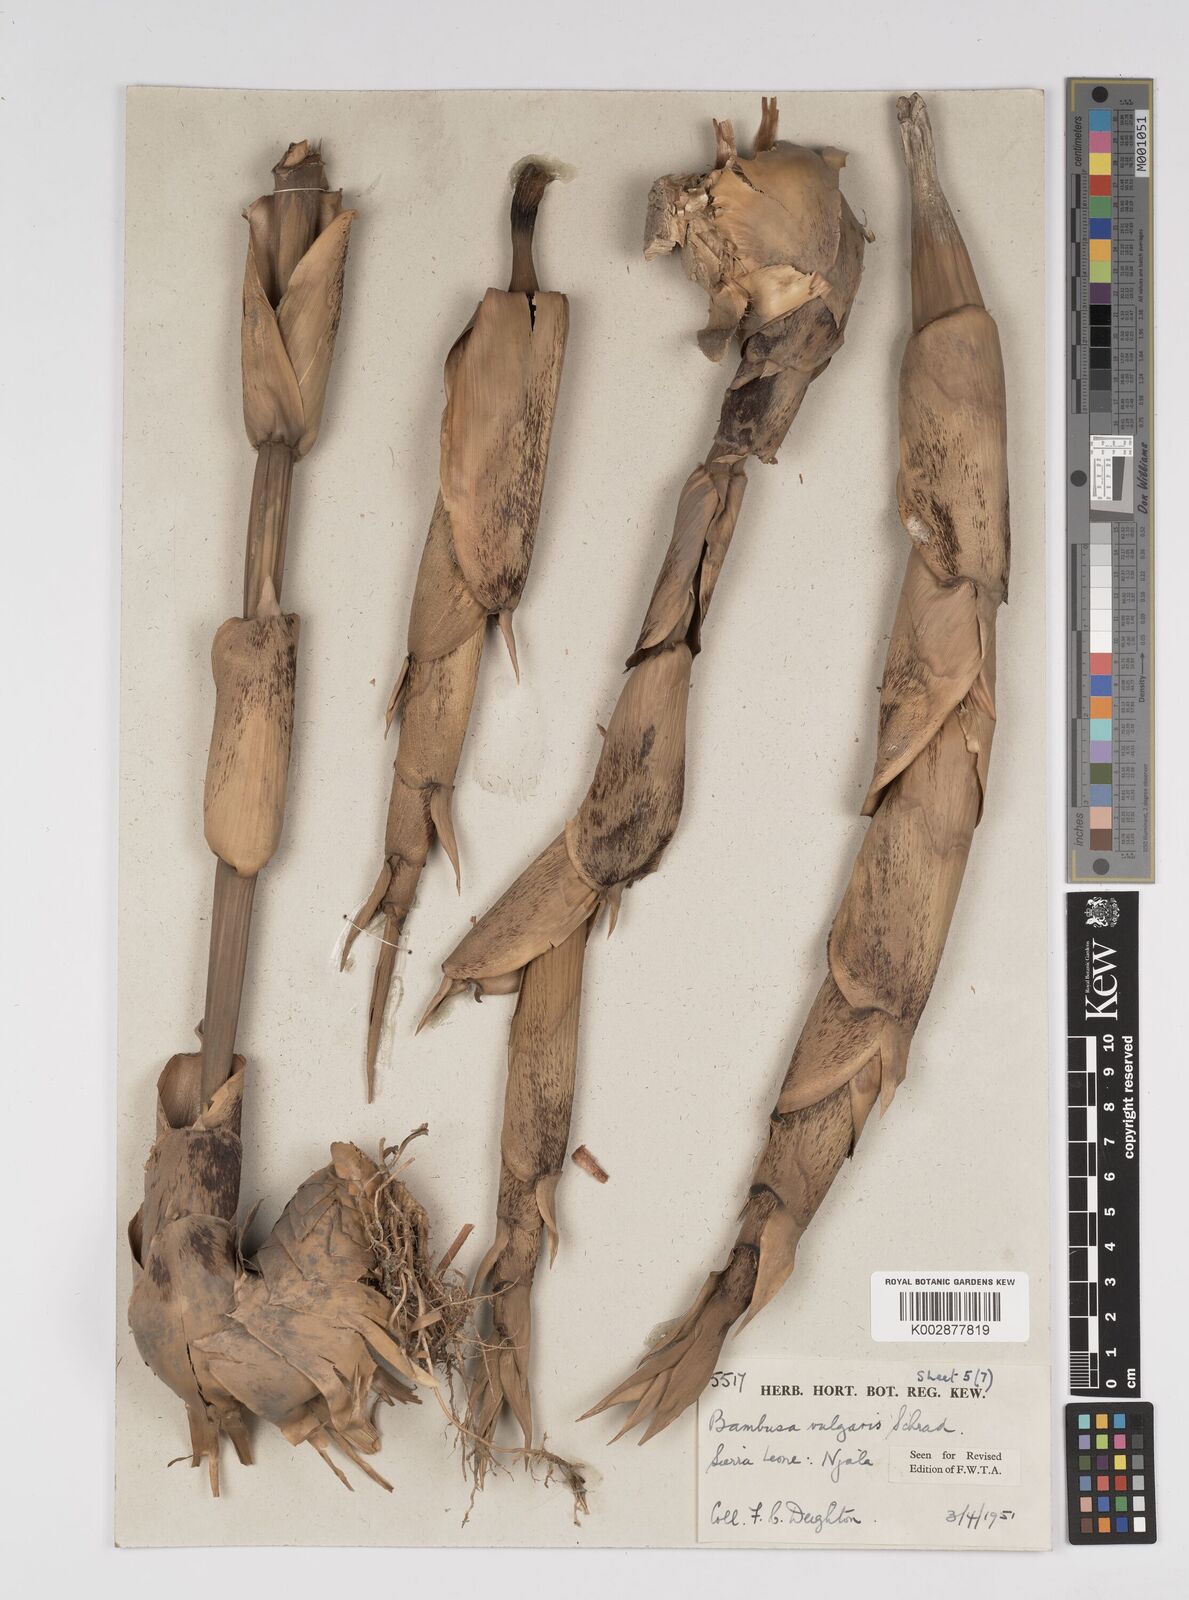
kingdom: Plantae
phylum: Tracheophyta
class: Liliopsida
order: Poales
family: Poaceae
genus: Bambusa
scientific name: Bambusa vulgaris
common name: Common bamboo
